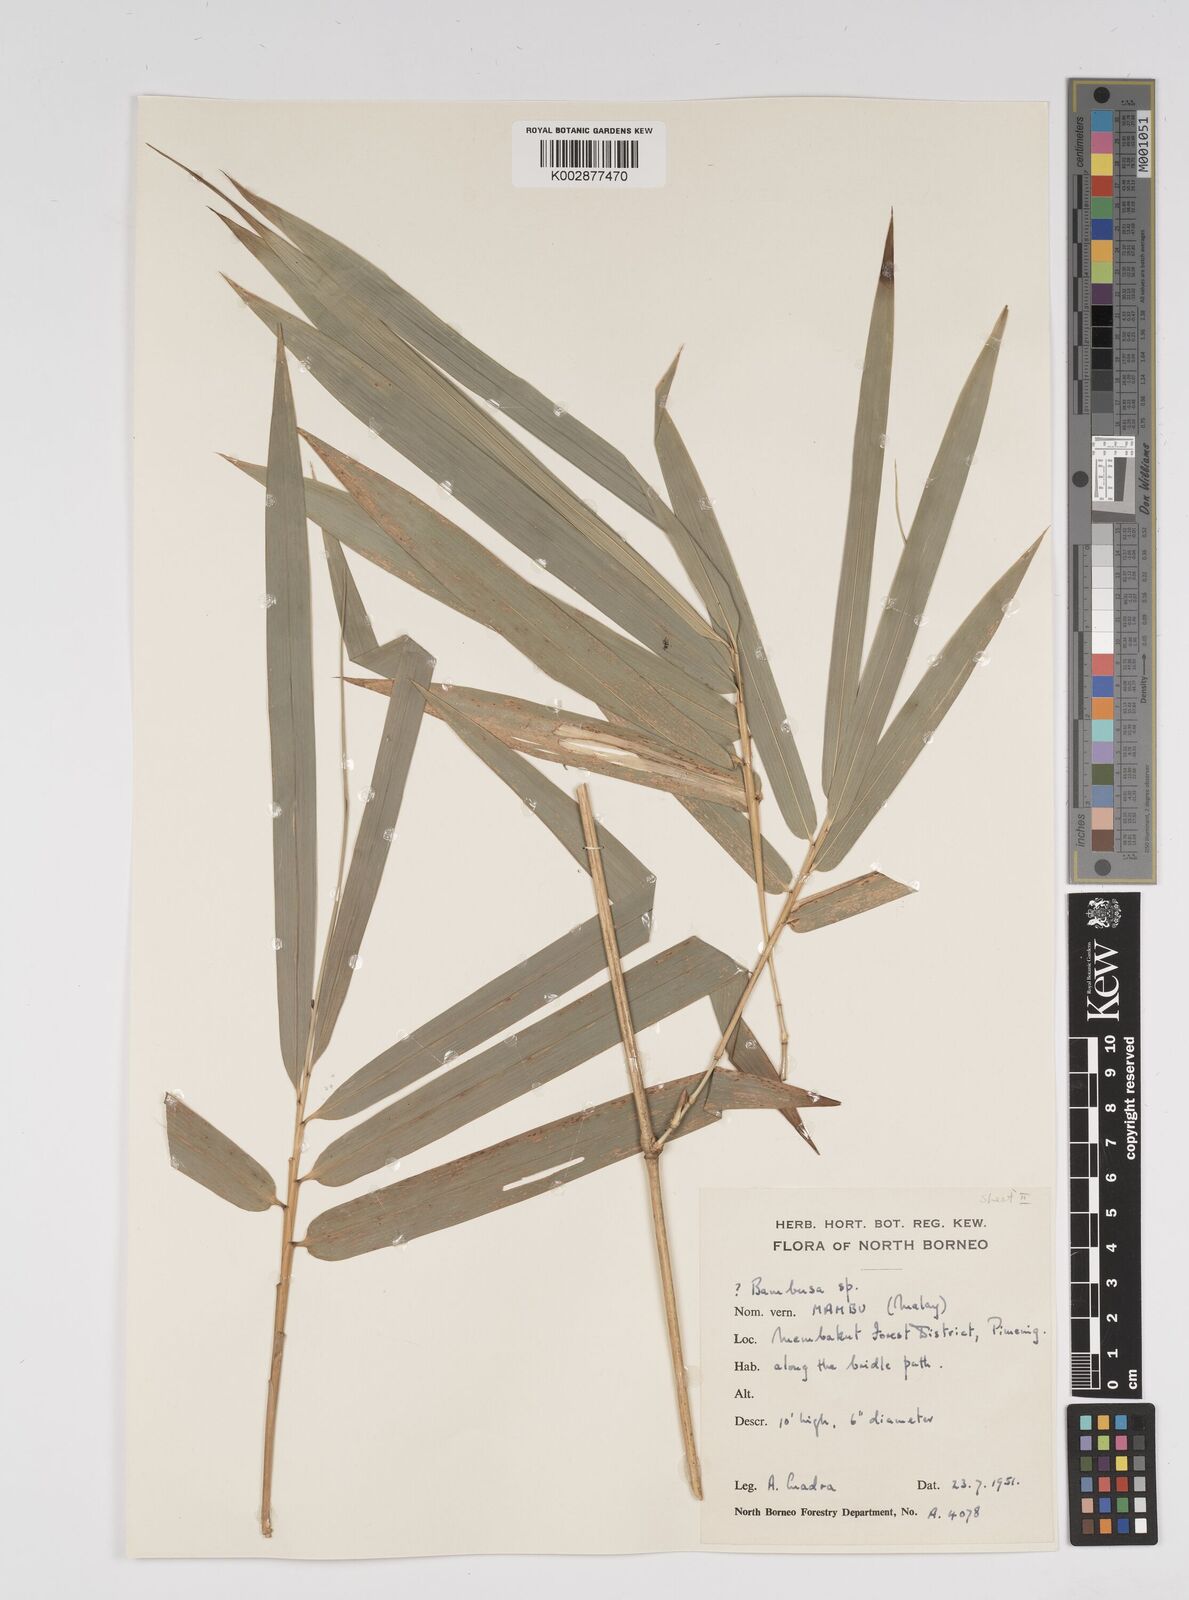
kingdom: Plantae
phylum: Tracheophyta
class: Liliopsida
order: Poales
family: Poaceae
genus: Bambusa
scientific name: Bambusa
